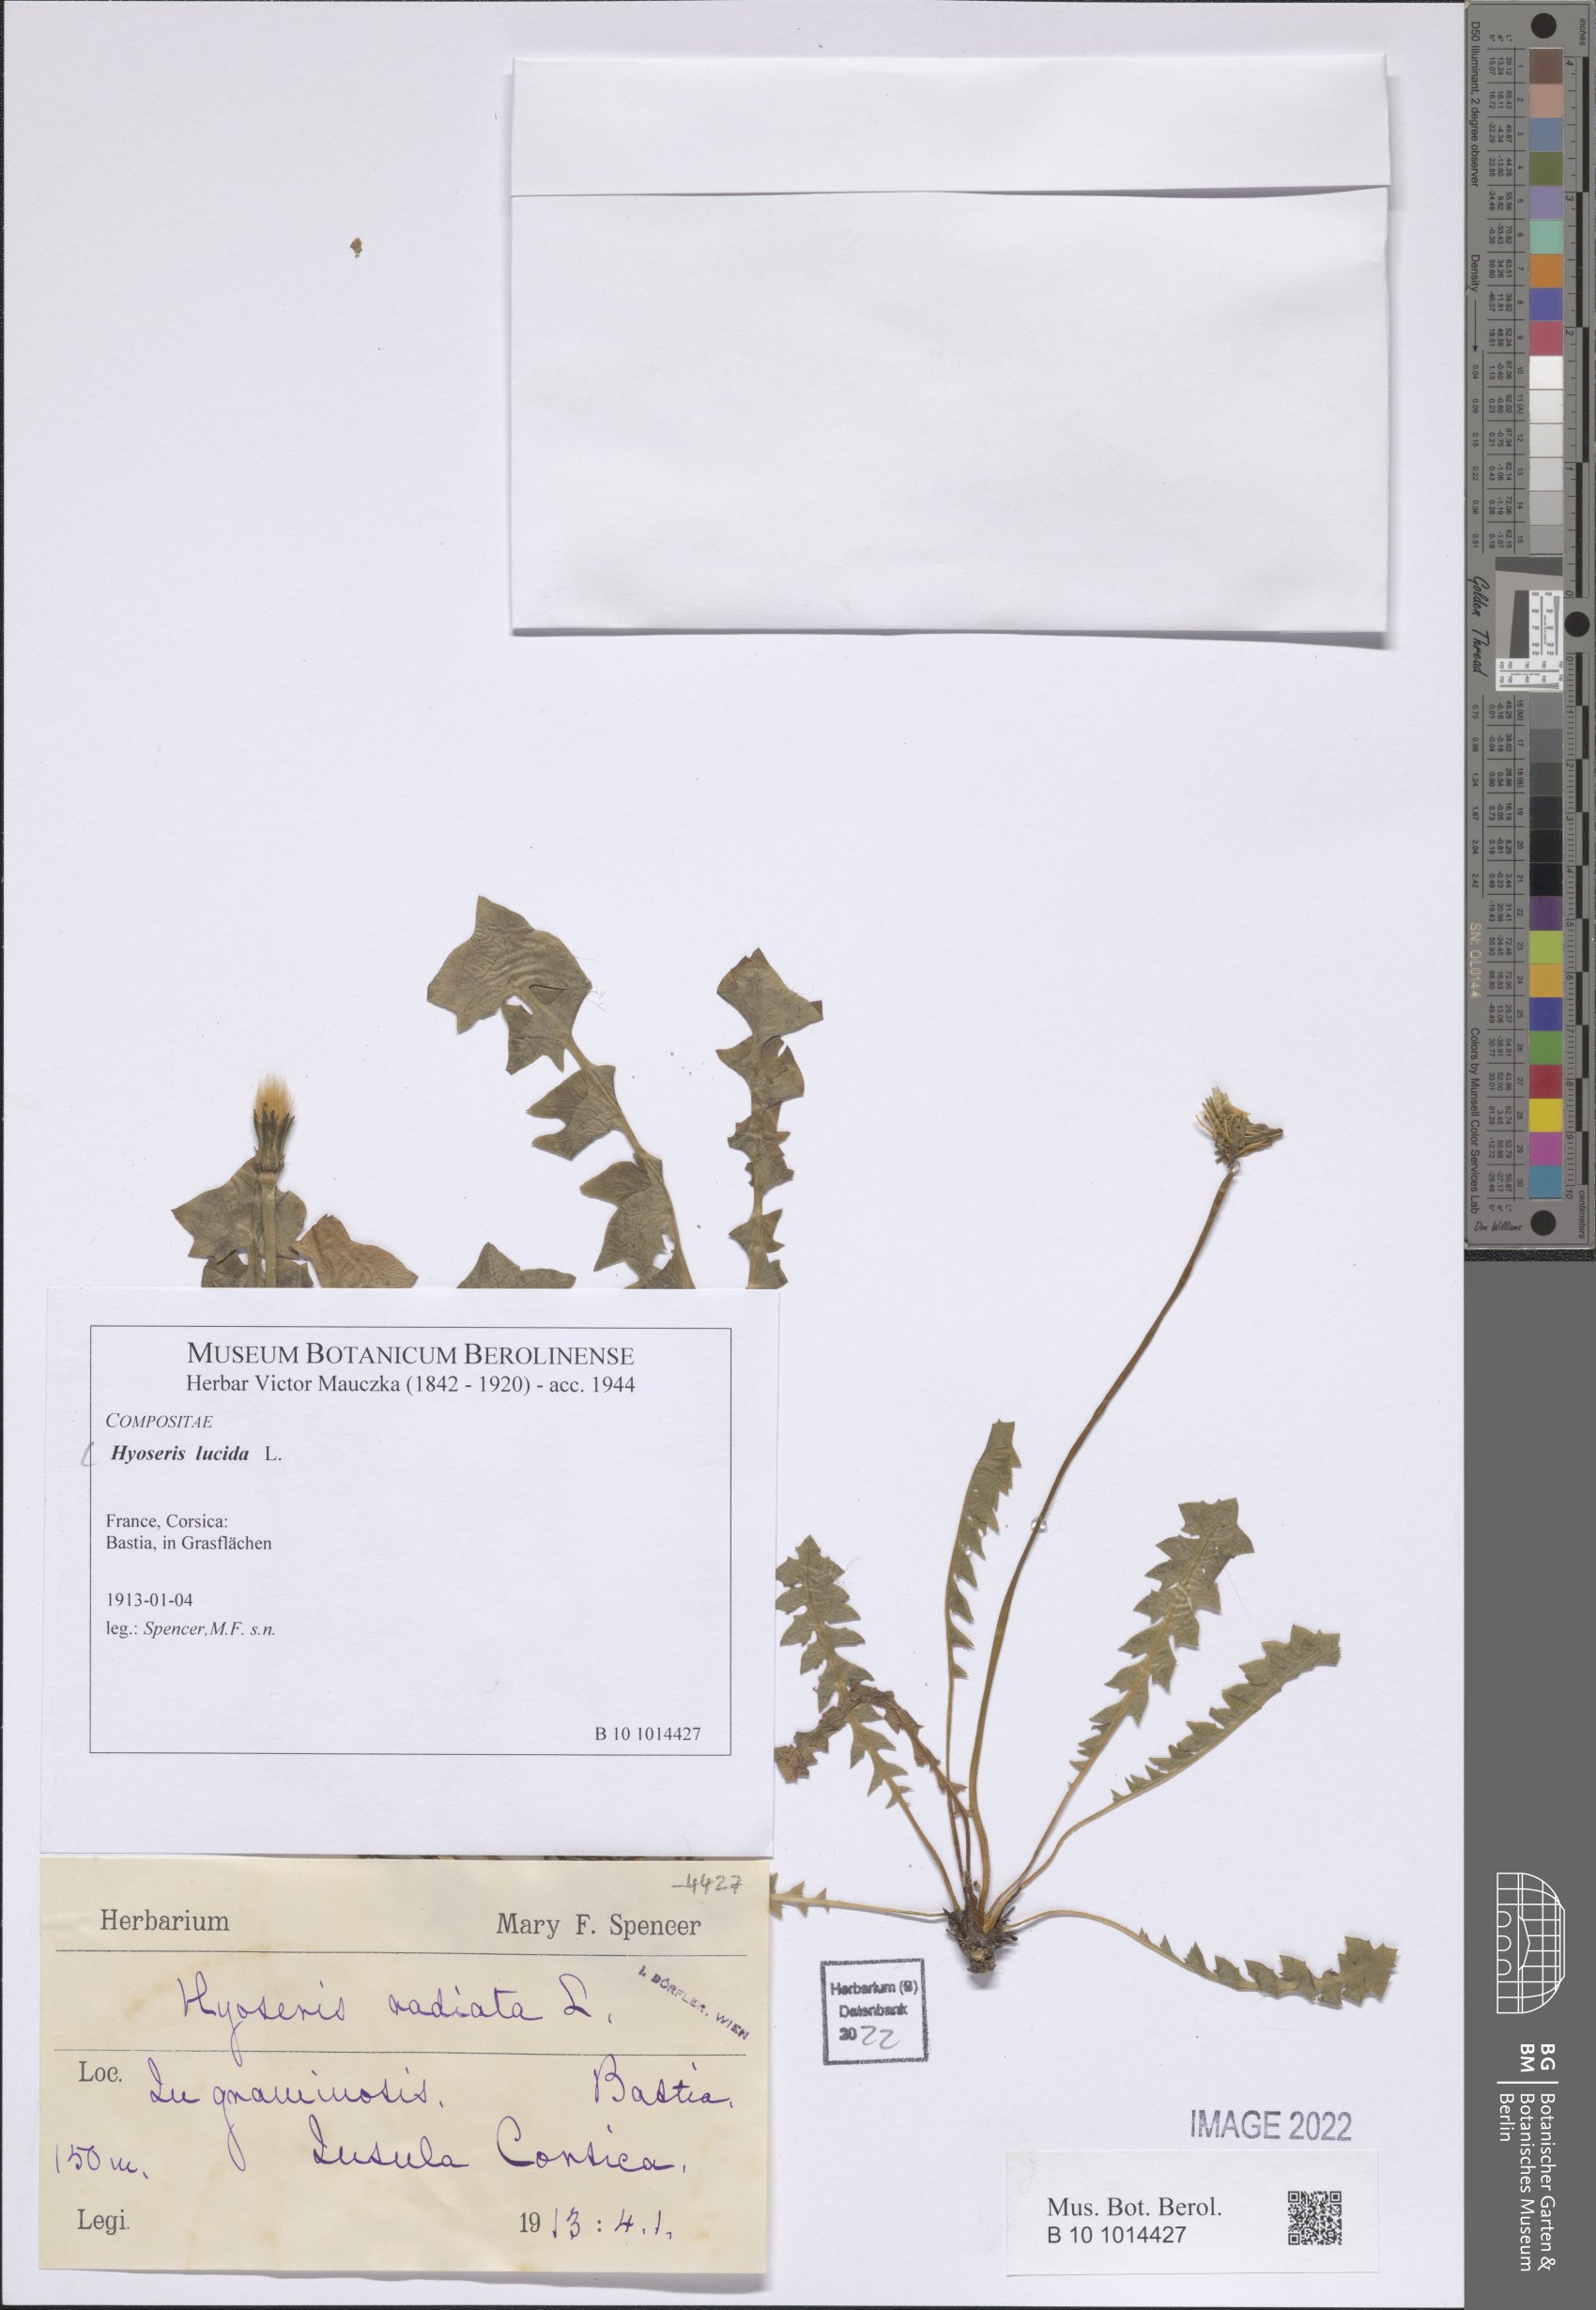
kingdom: Plantae
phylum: Tracheophyta
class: Magnoliopsida
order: Asterales
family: Asteraceae
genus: Hyoseris
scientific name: Hyoseris lucida
